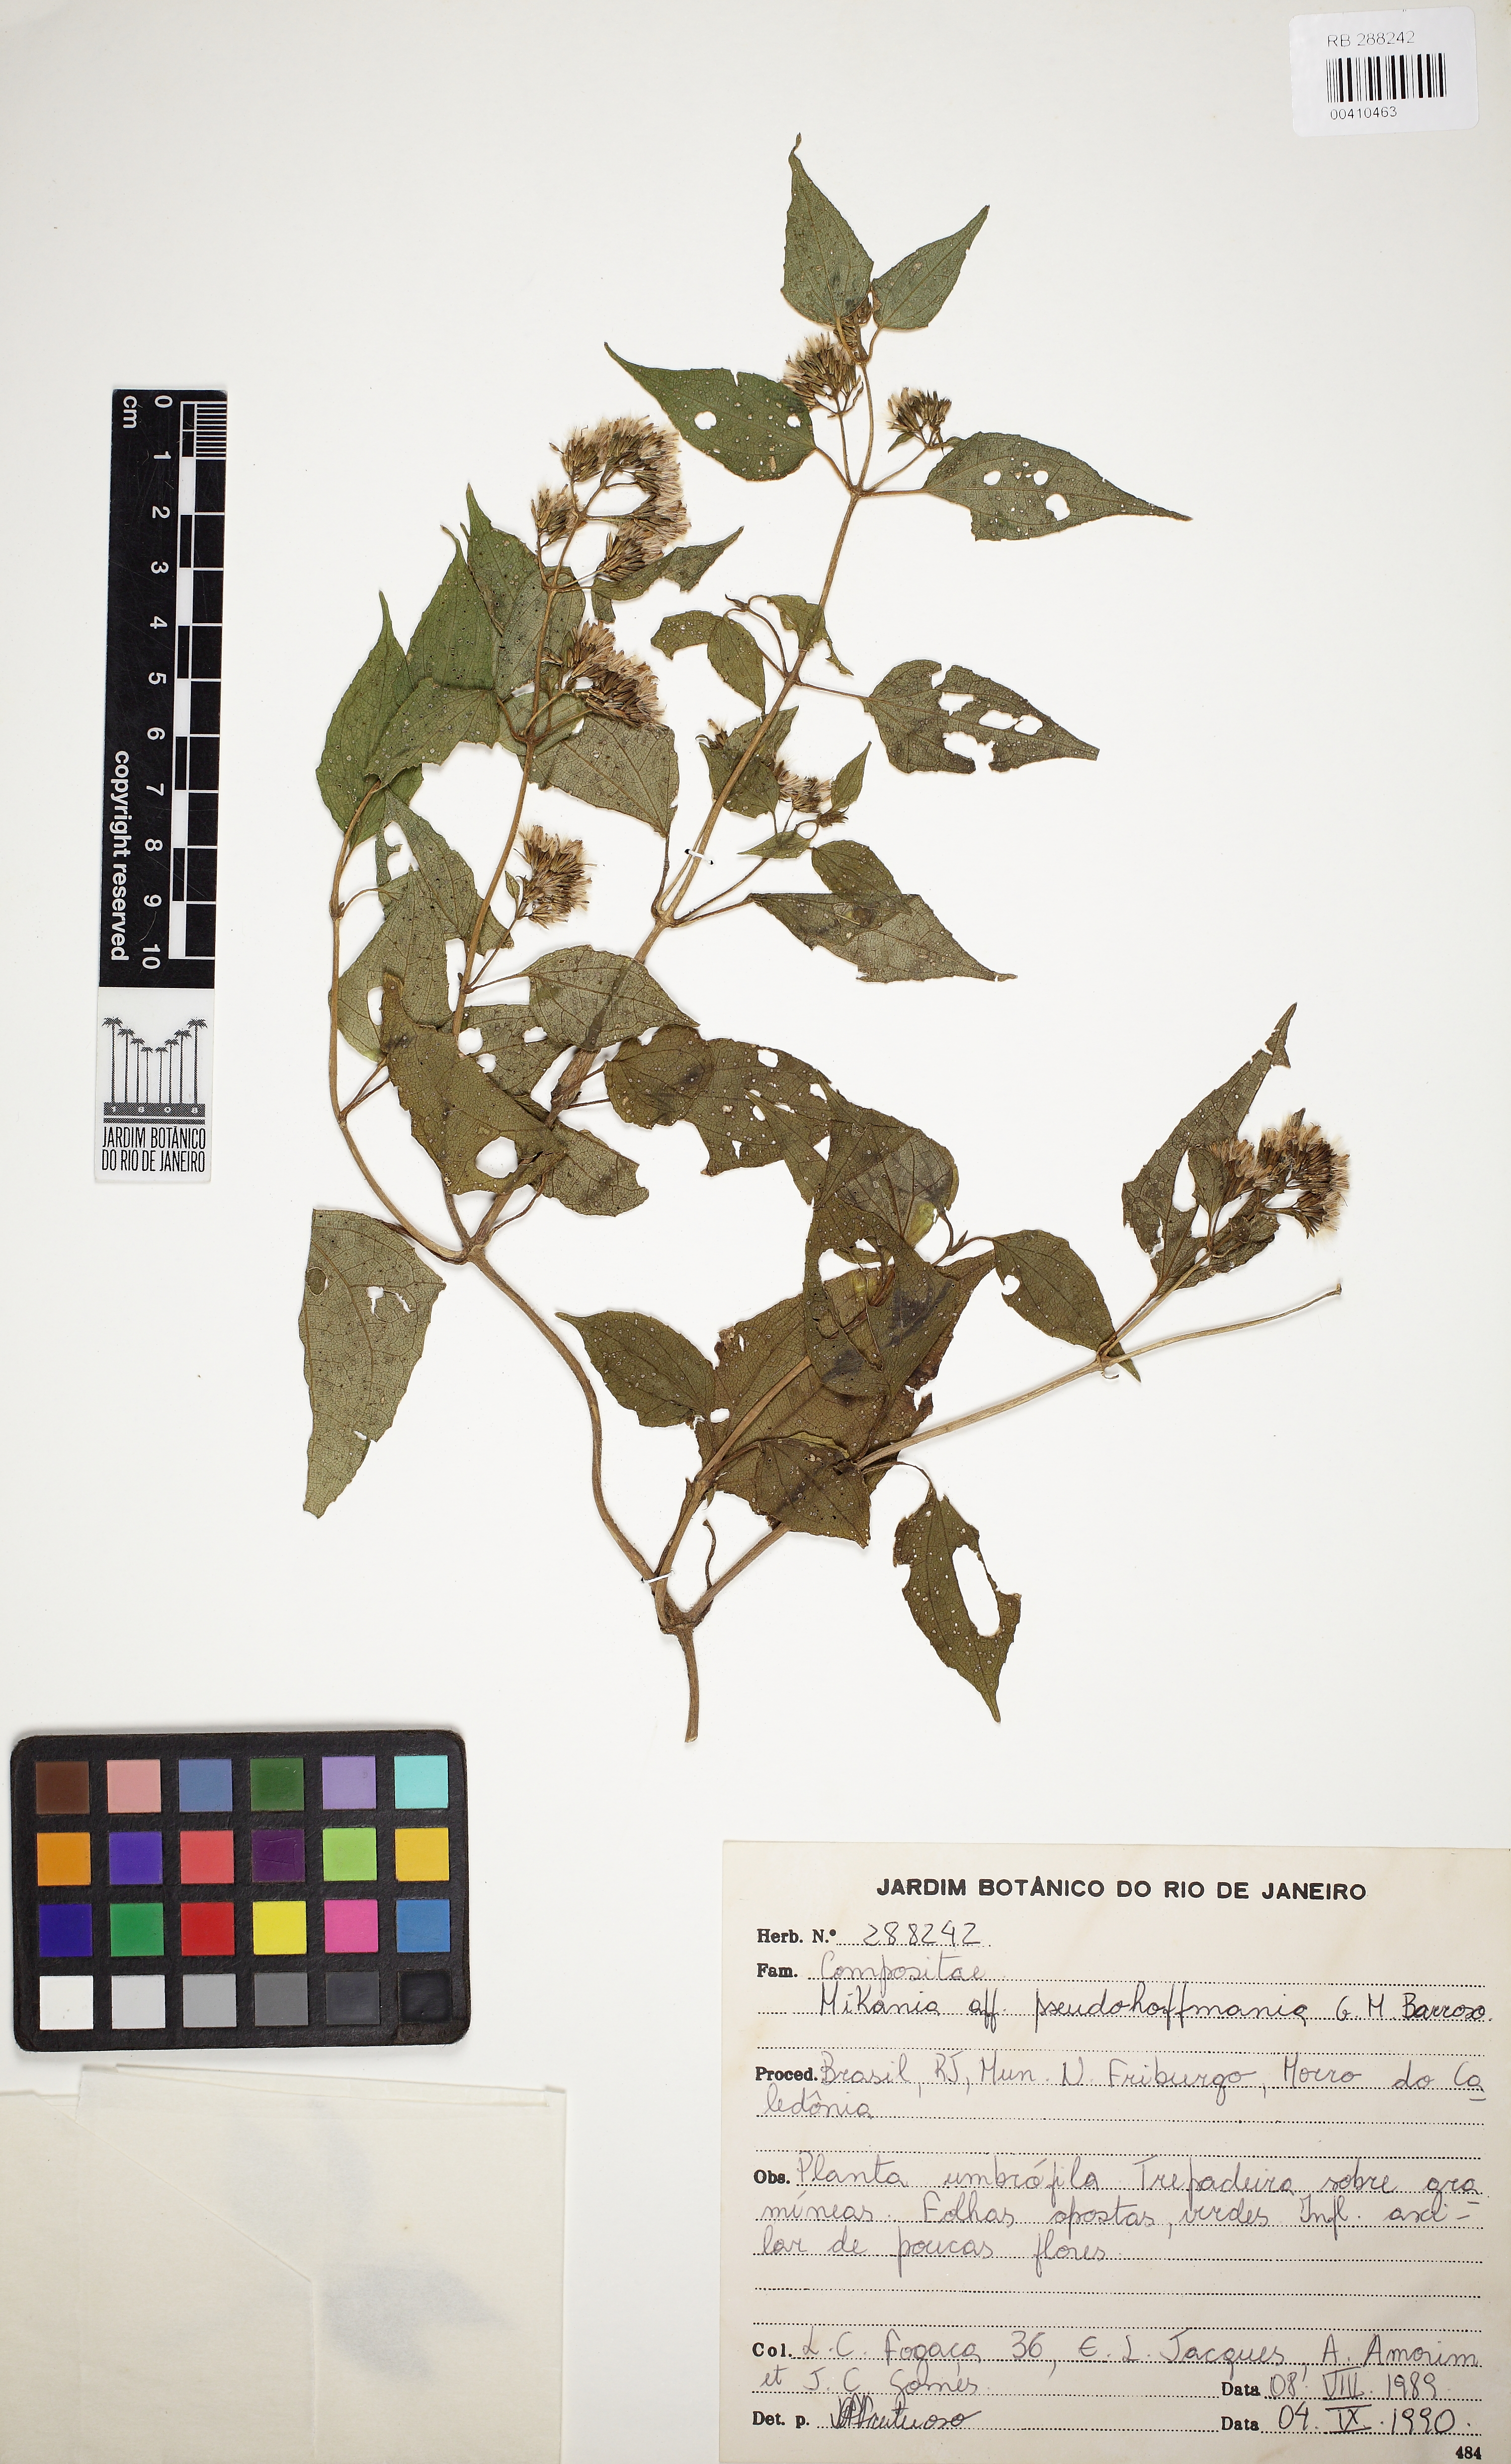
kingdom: Plantae
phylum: Tracheophyta
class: Magnoliopsida
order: Asterales
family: Asteraceae
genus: Mikania
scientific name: Mikania pseudohoffmanniana
